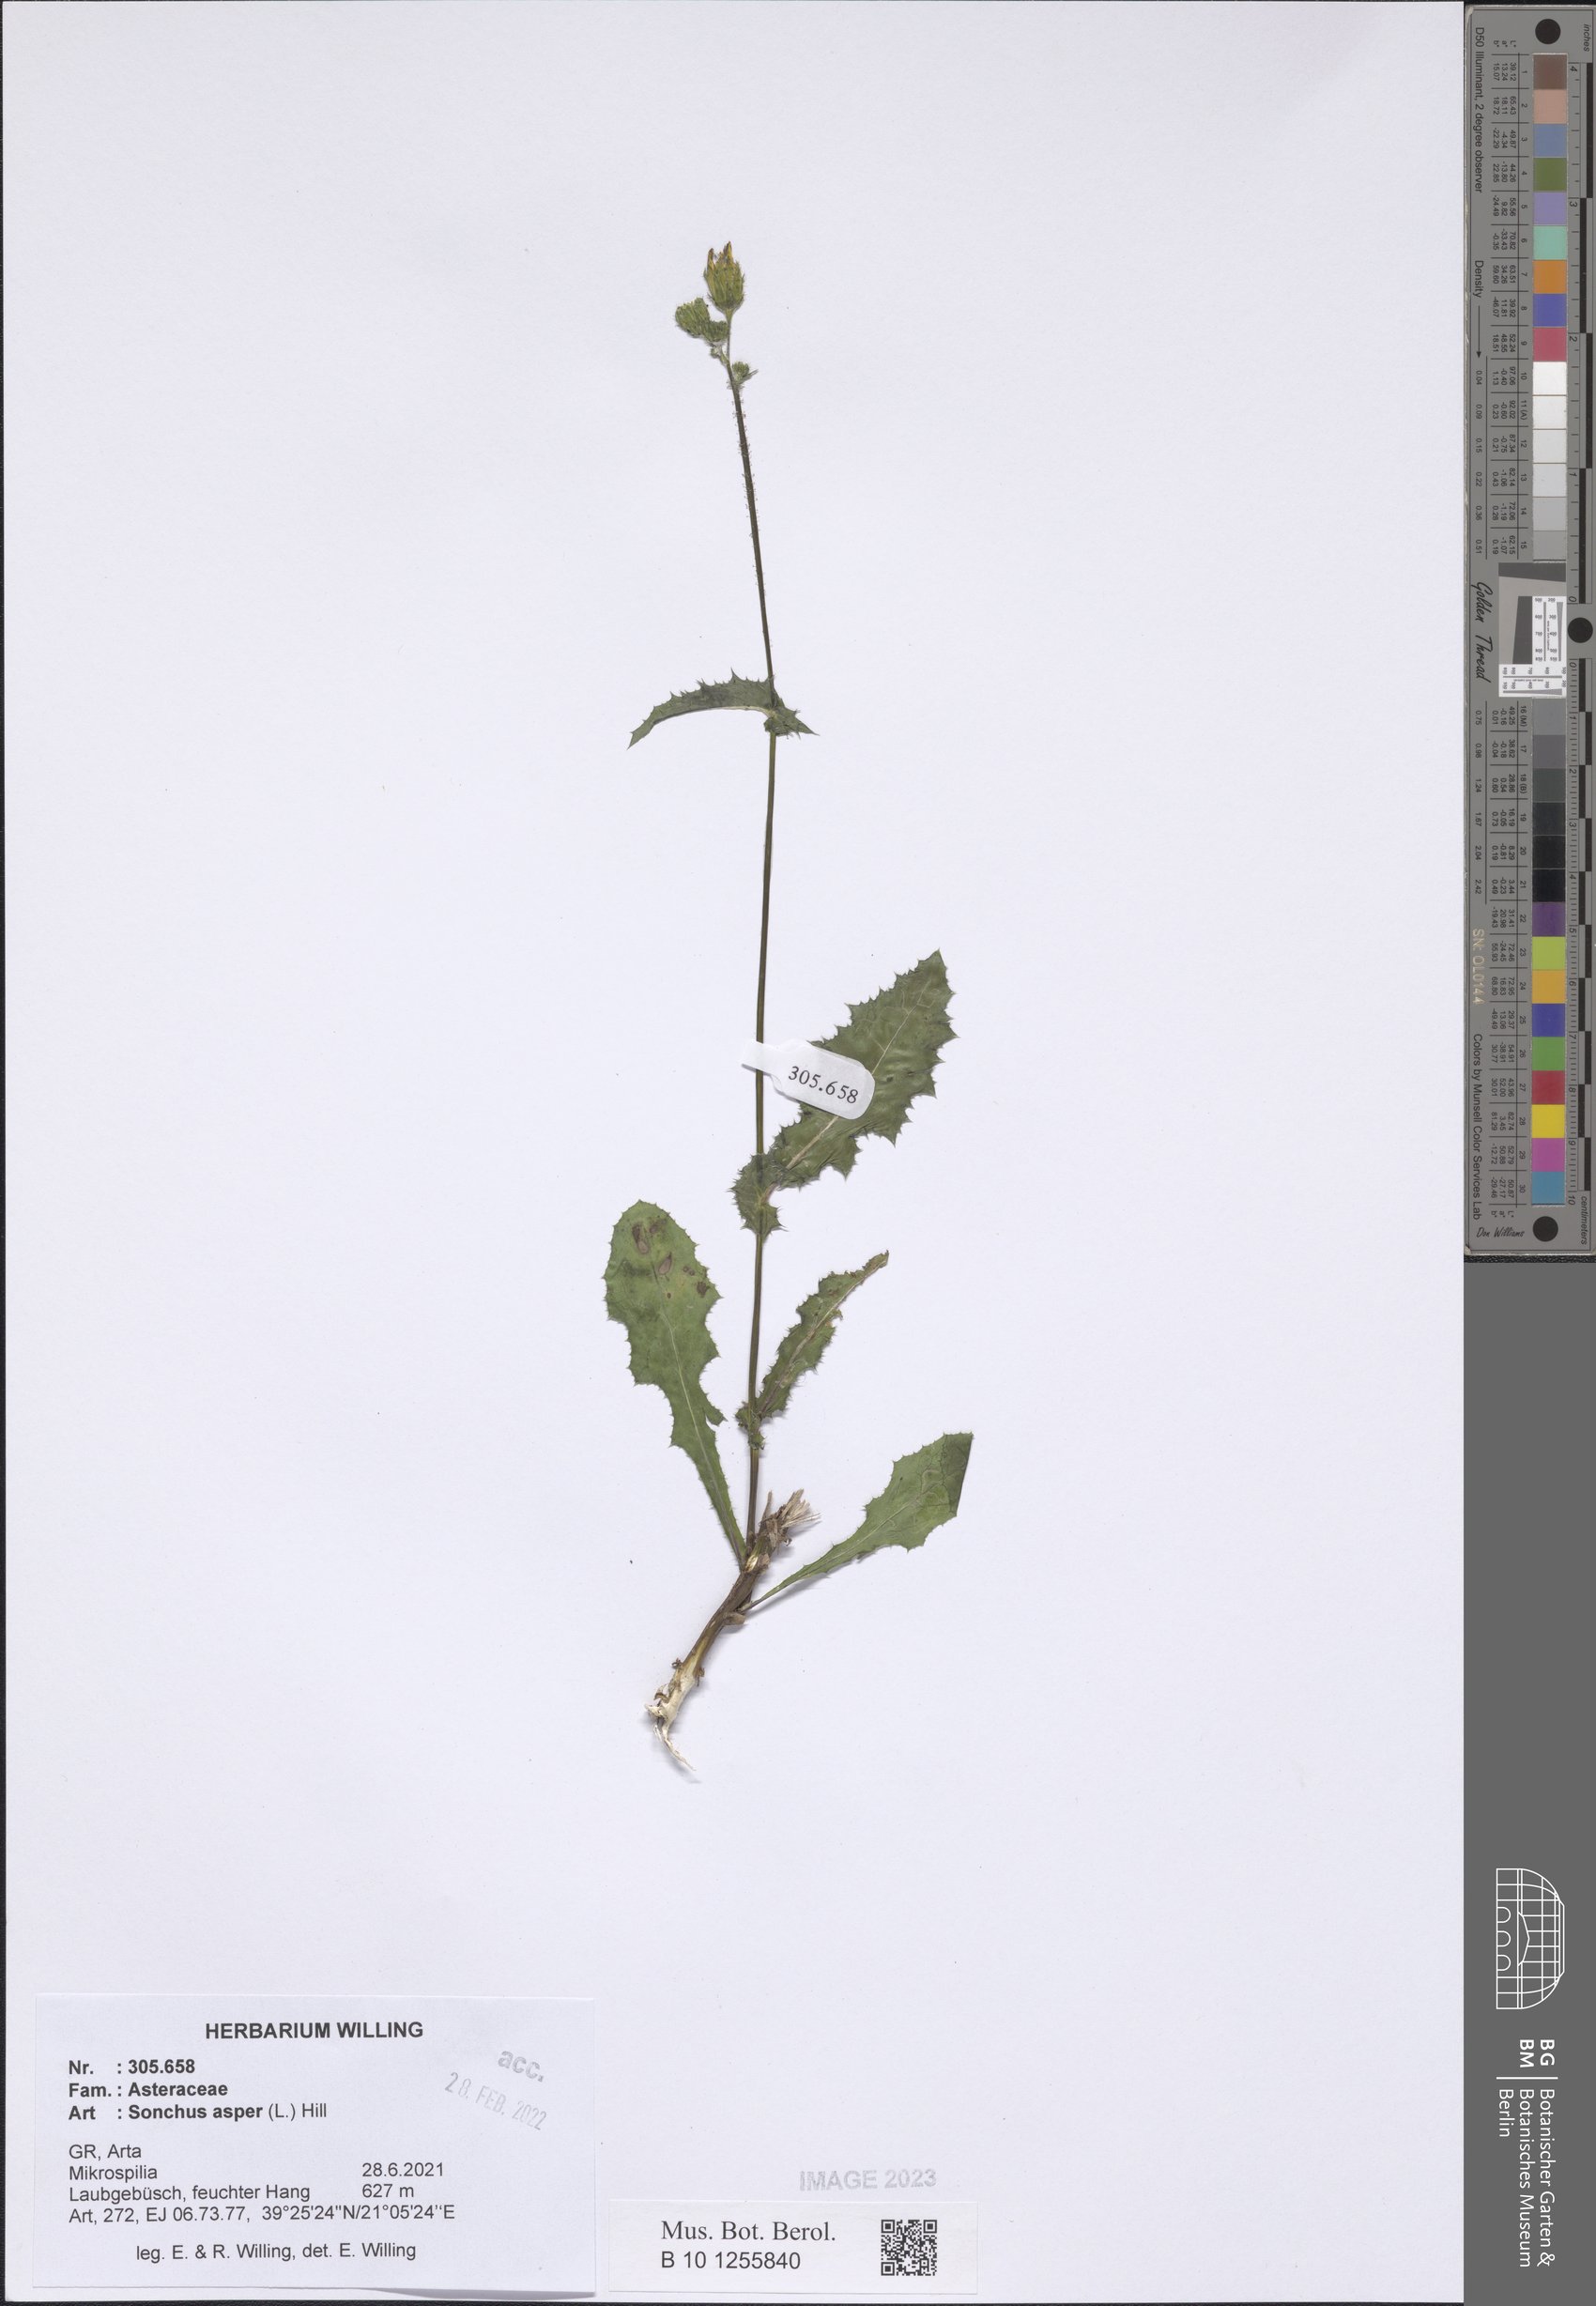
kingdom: Plantae
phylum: Tracheophyta
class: Magnoliopsida
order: Asterales
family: Asteraceae
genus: Sonchus
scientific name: Sonchus asper
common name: Prickly sow-thistle
